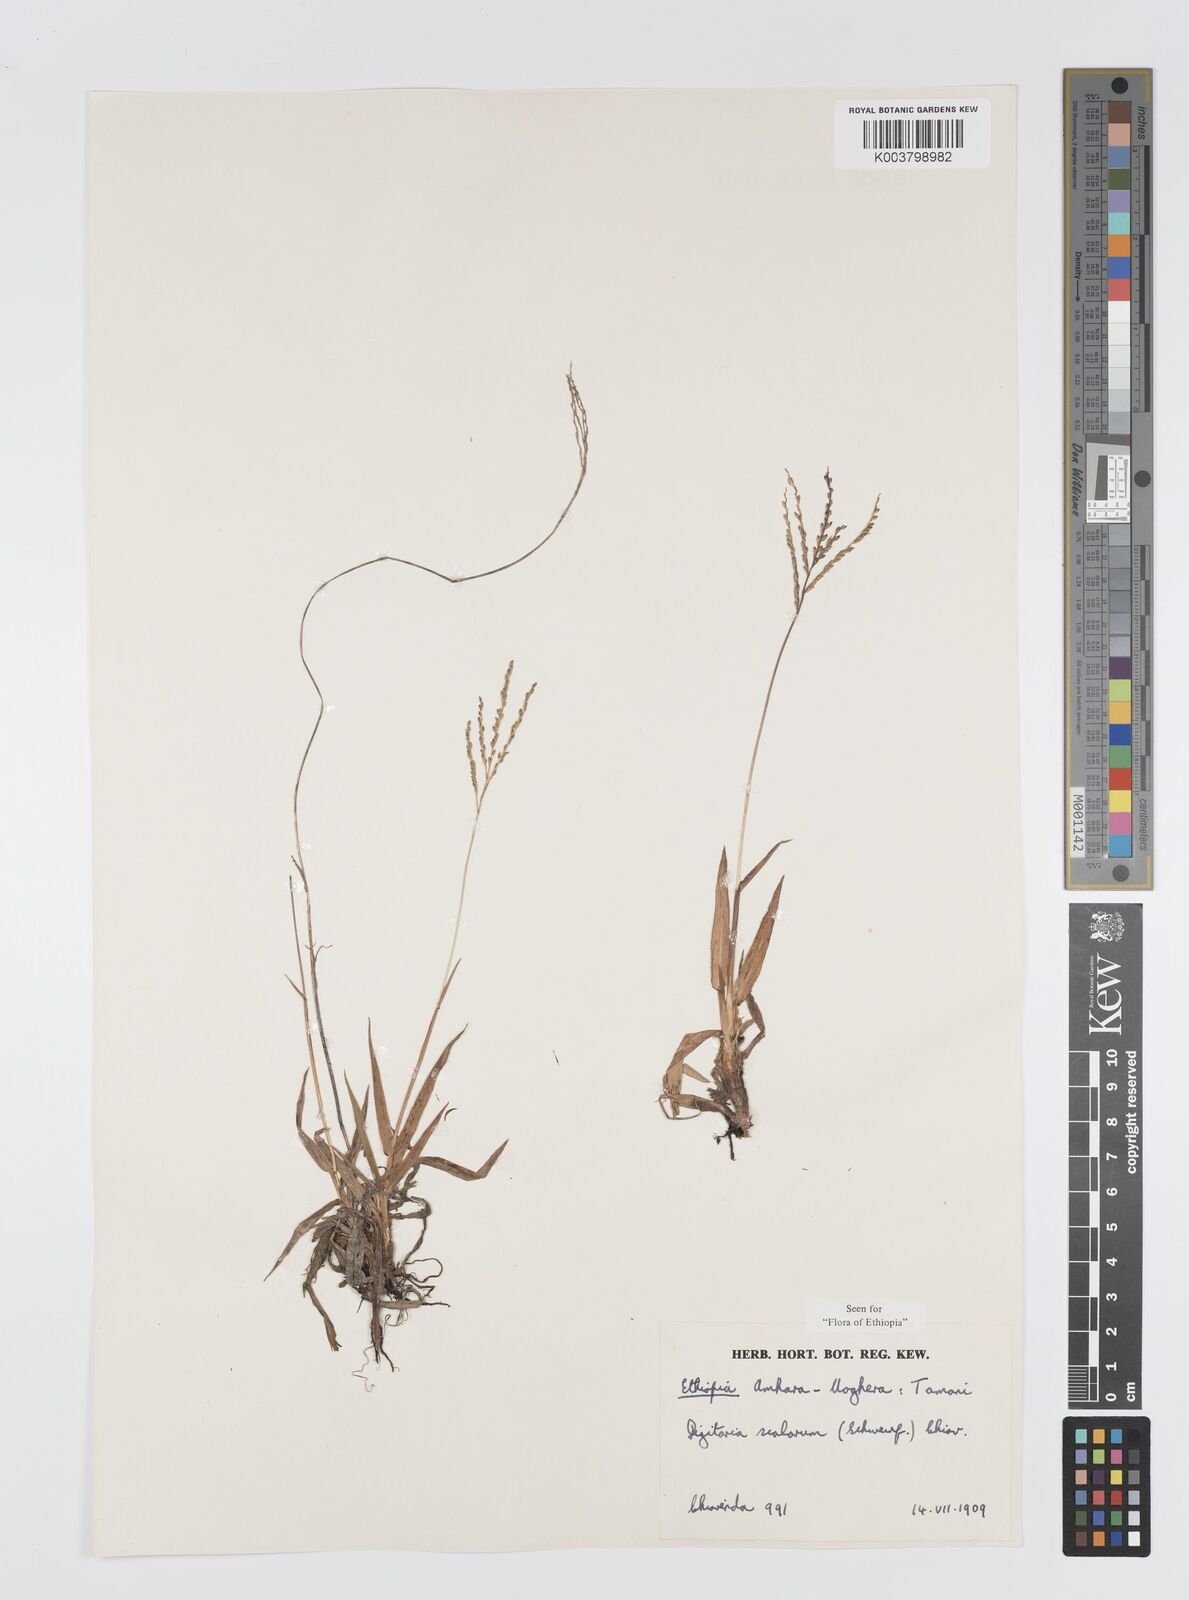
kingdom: Plantae
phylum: Tracheophyta
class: Liliopsida
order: Poales
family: Poaceae
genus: Digitaria
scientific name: Digitaria abyssinica
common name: African couchgrass
